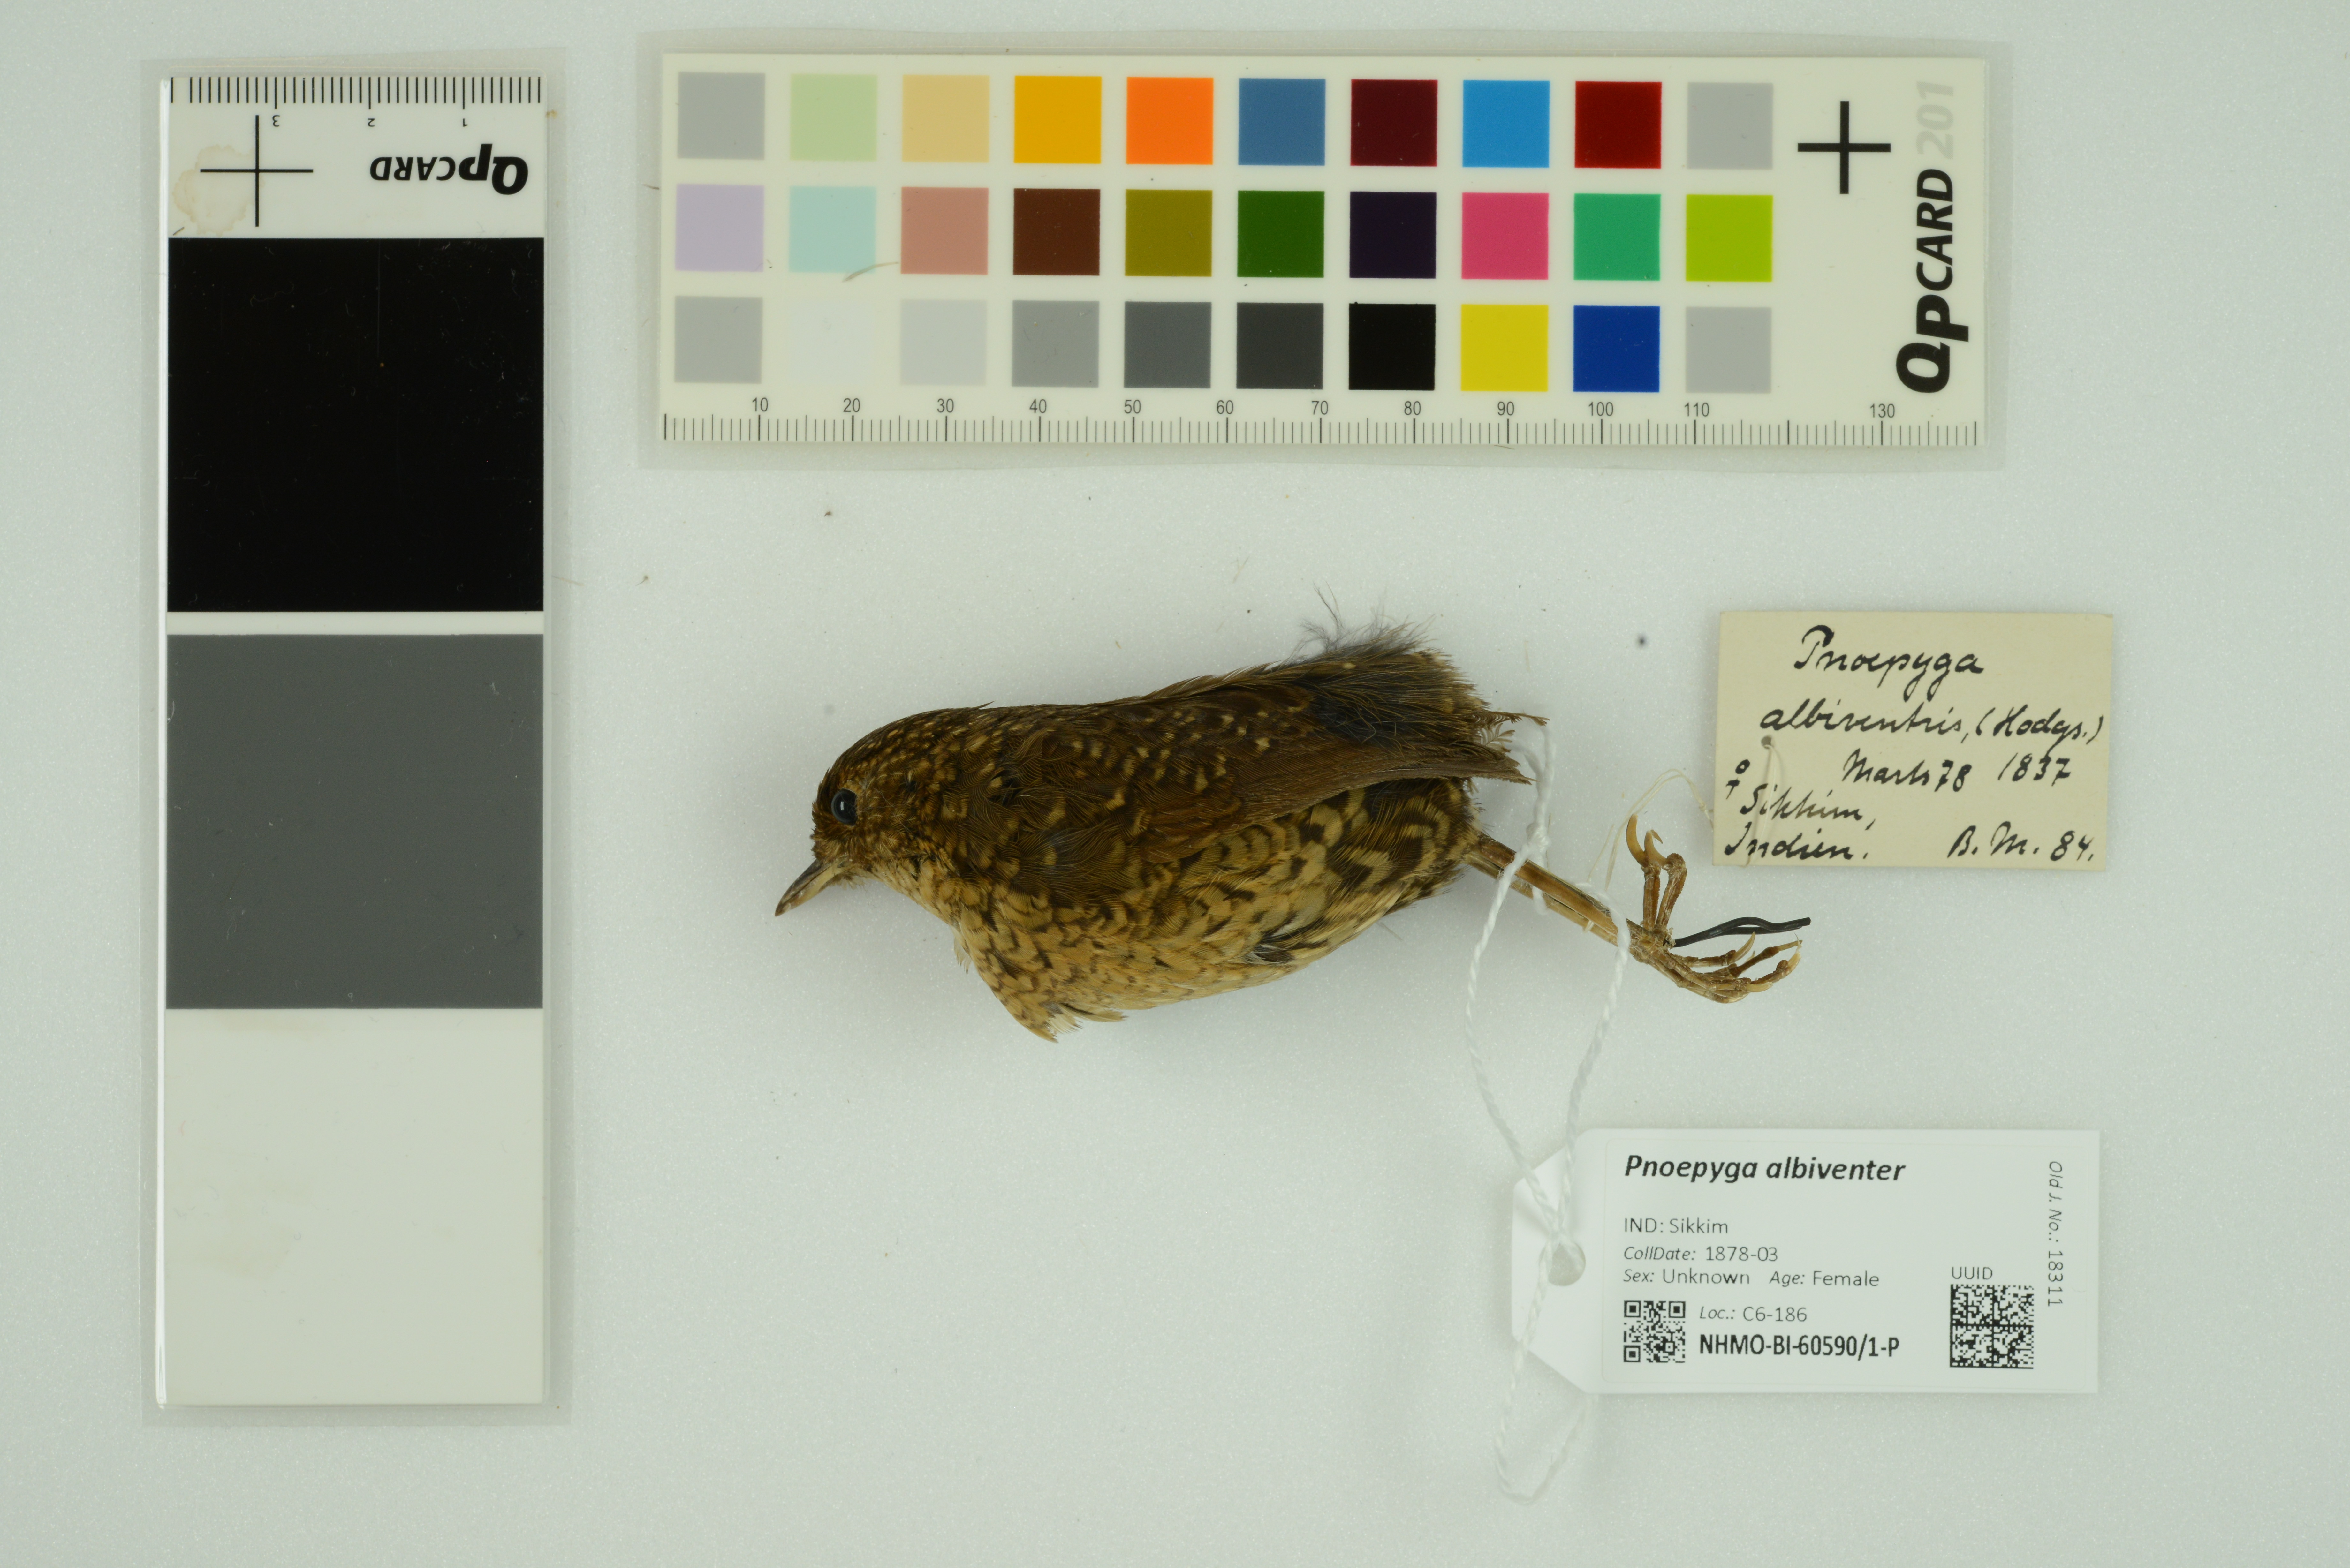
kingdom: Animalia
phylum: Chordata
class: Aves
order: Passeriformes
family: Pnoepygidae
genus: Pnoepyga
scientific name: Pnoepyga albiventer
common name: Scaly-breasted wren-babbler
